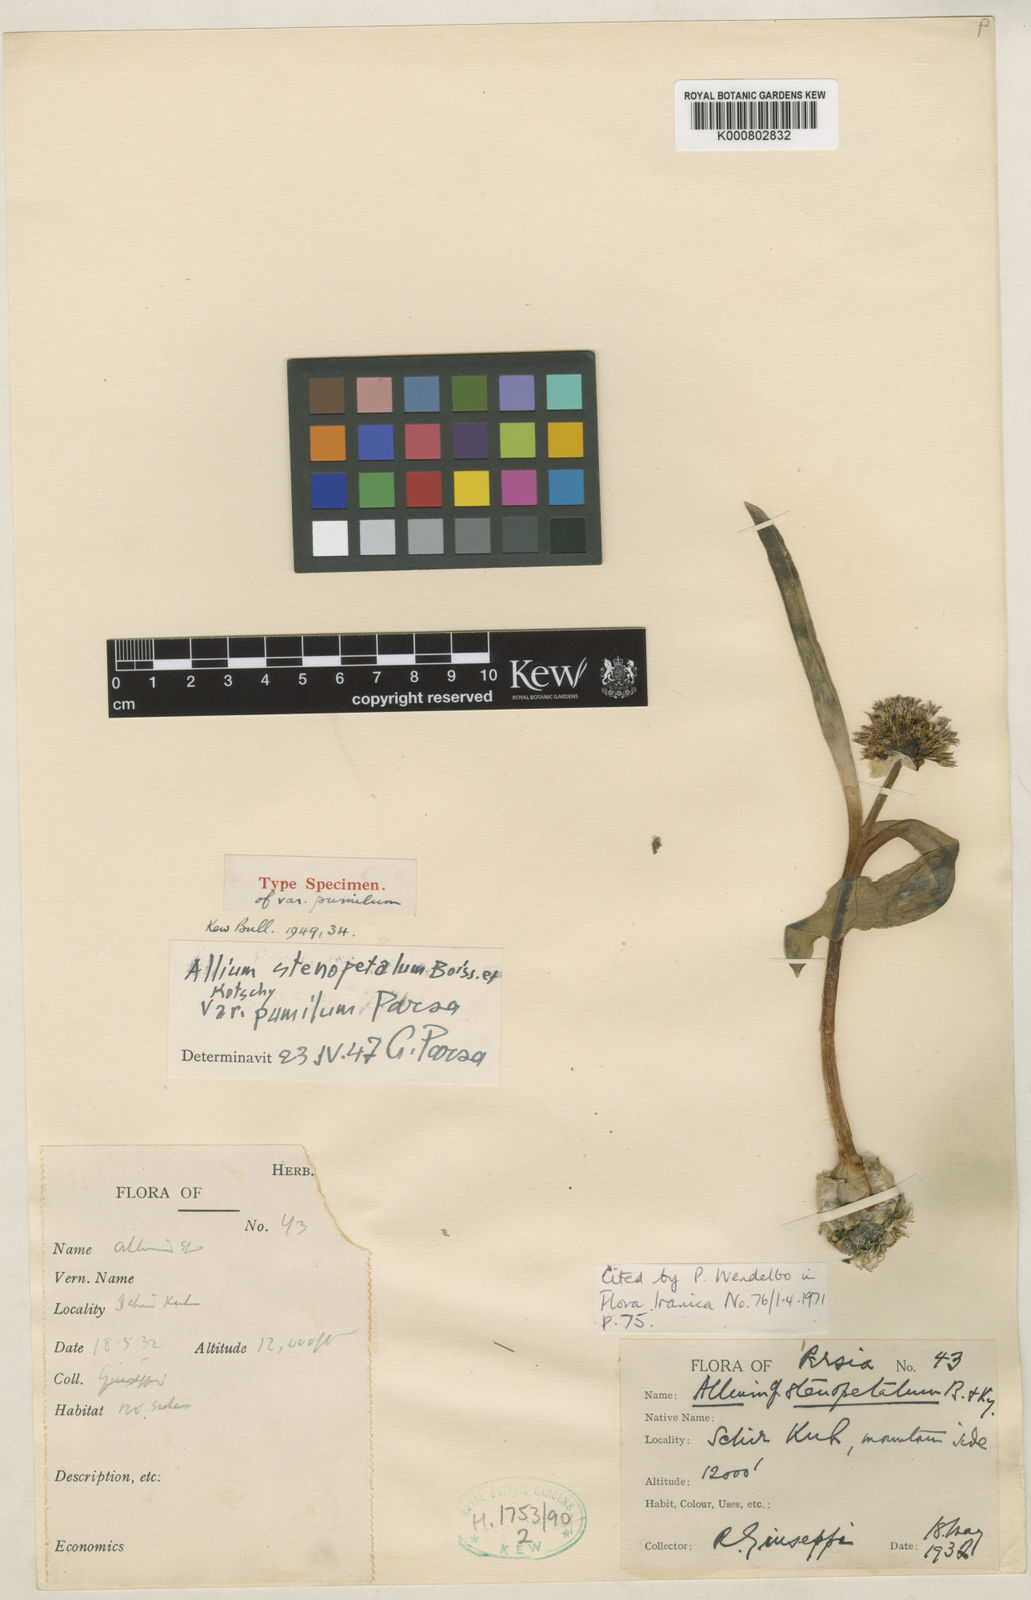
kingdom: Plantae
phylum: Tracheophyta
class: Liliopsida
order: Asparagales
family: Amaryllidaceae
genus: Allium
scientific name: Allium minutiflorum
